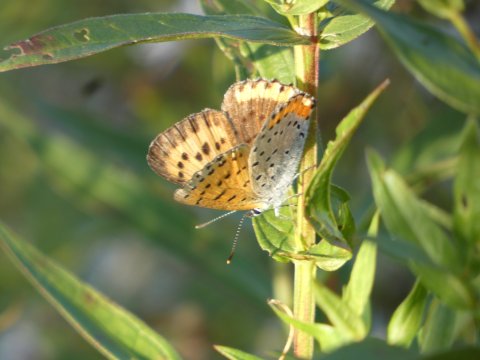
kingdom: Animalia
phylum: Arthropoda
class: Insecta
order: Lepidoptera
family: Sesiidae
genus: Sesia
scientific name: Sesia Lycaena hyllus
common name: Bronze Copper
